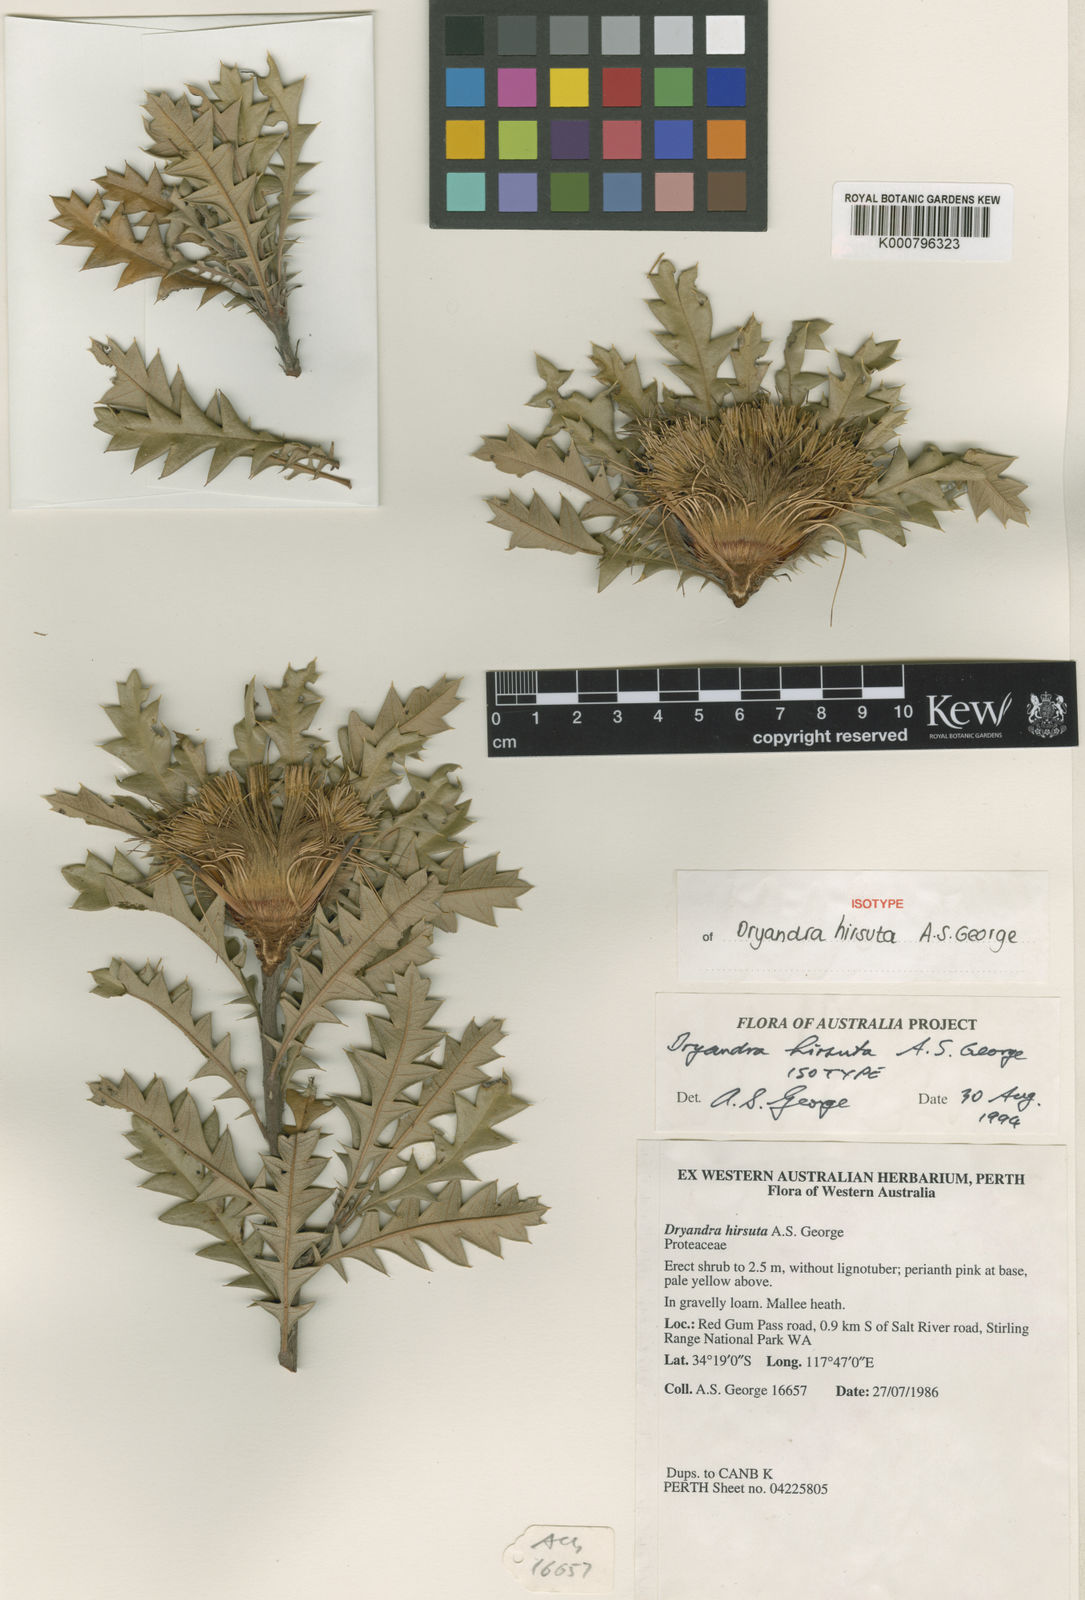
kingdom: Plantae
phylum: Tracheophyta
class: Magnoliopsida
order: Proteales
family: Proteaceae
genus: Banksia
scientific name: Banksia hirta
